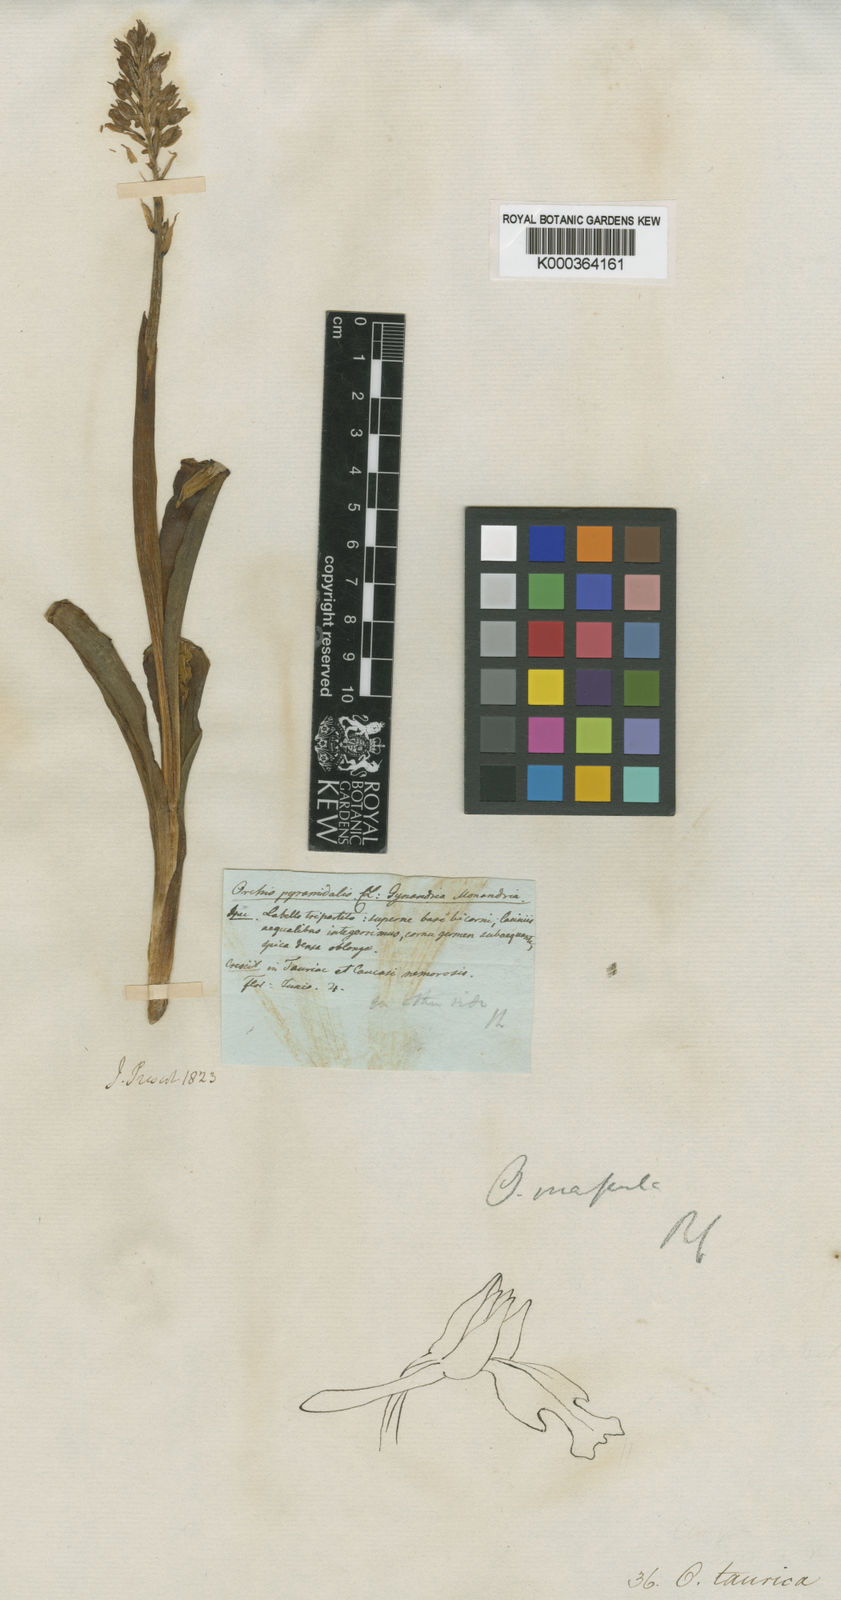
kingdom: Plantae
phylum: Tracheophyta
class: Liliopsida
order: Asparagales
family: Orchidaceae
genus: Neotinea
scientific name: Neotinea
